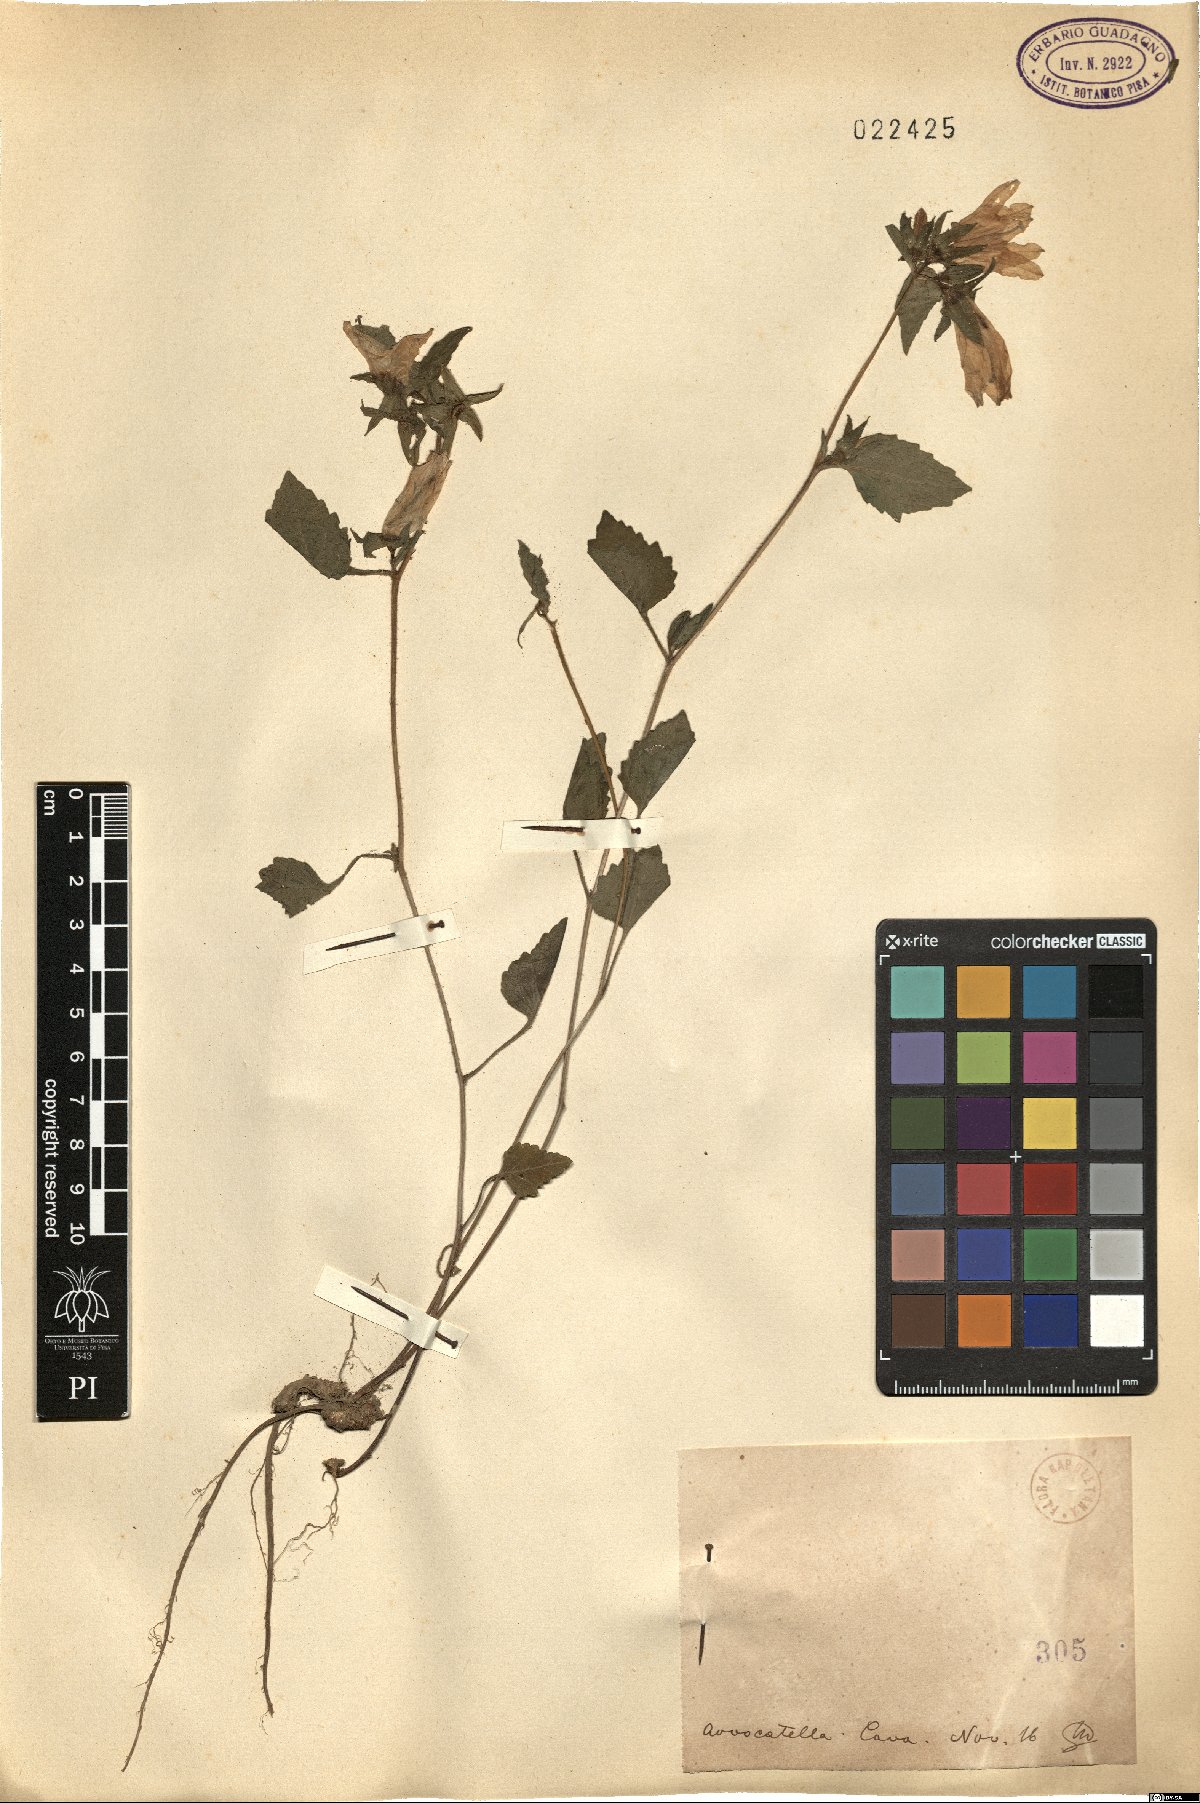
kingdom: Plantae
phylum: Tracheophyta
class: Magnoliopsida
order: Asterales
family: Campanulaceae
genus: Campanula
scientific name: Campanula
